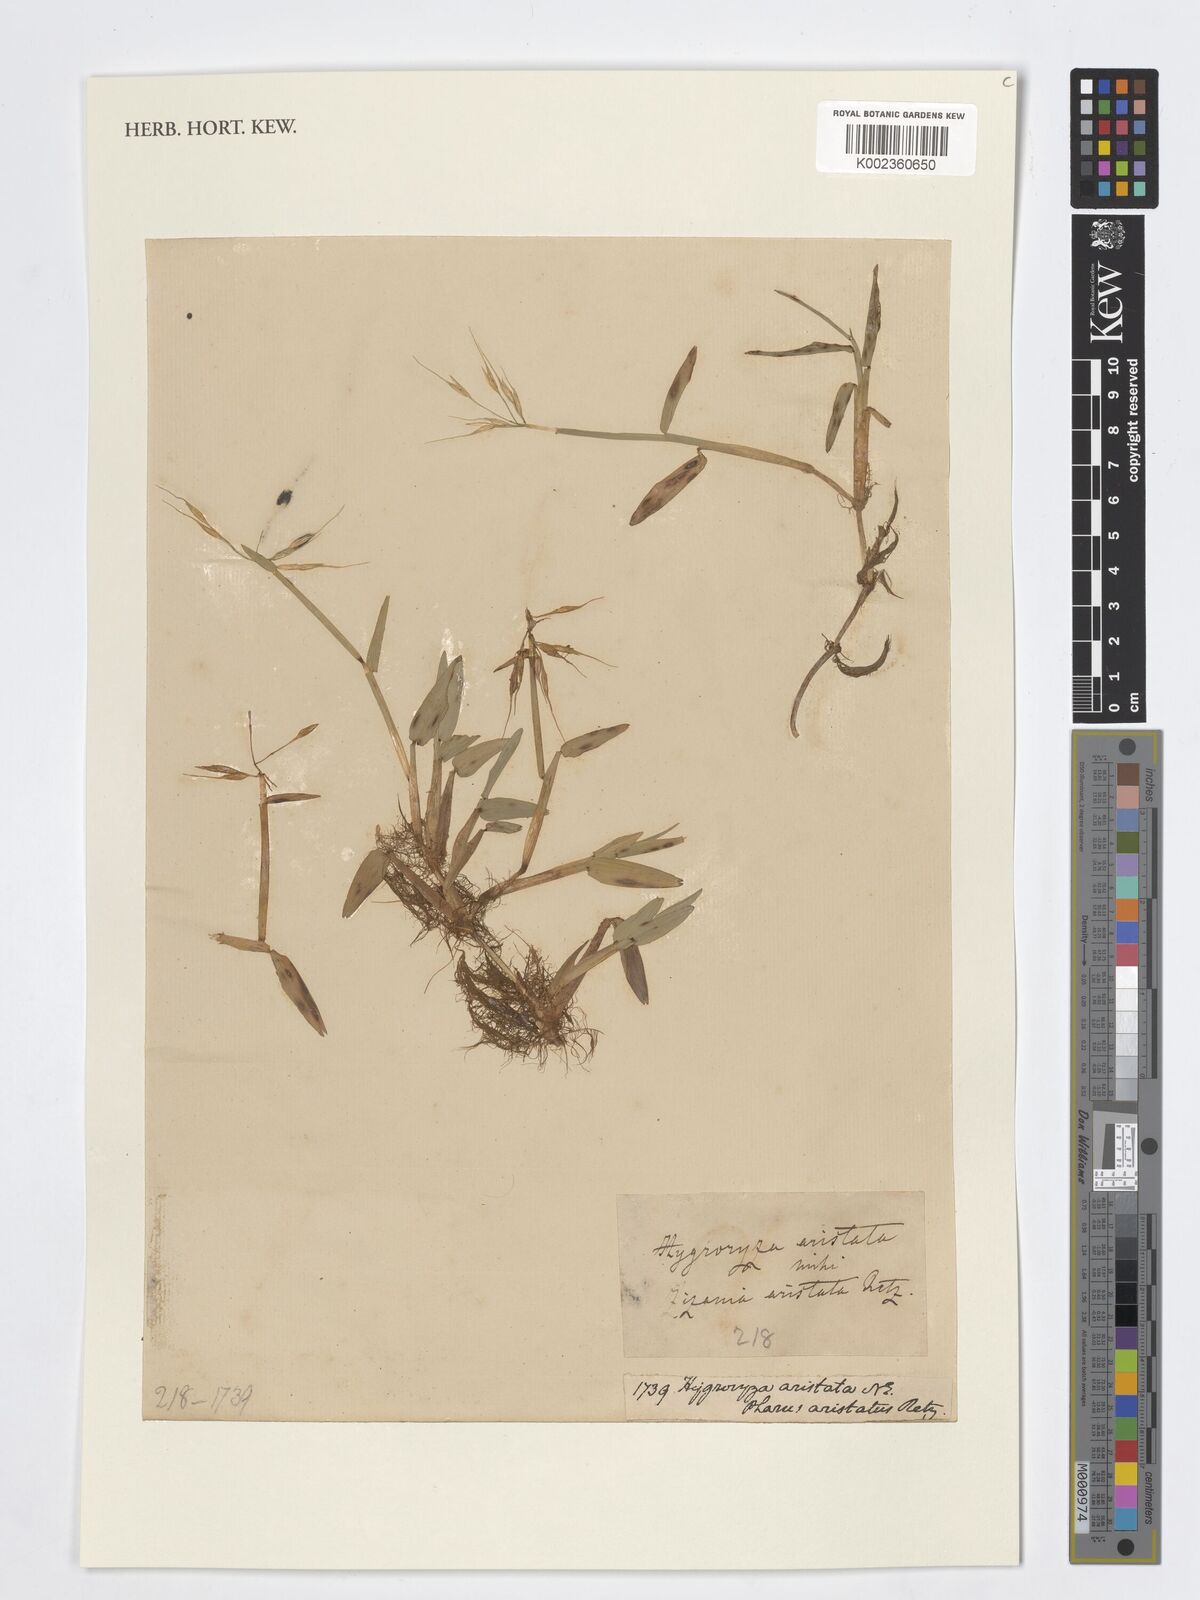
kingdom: Plantae
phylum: Tracheophyta
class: Liliopsida
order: Poales
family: Poaceae
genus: Hygroryza
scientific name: Hygroryza aristata
